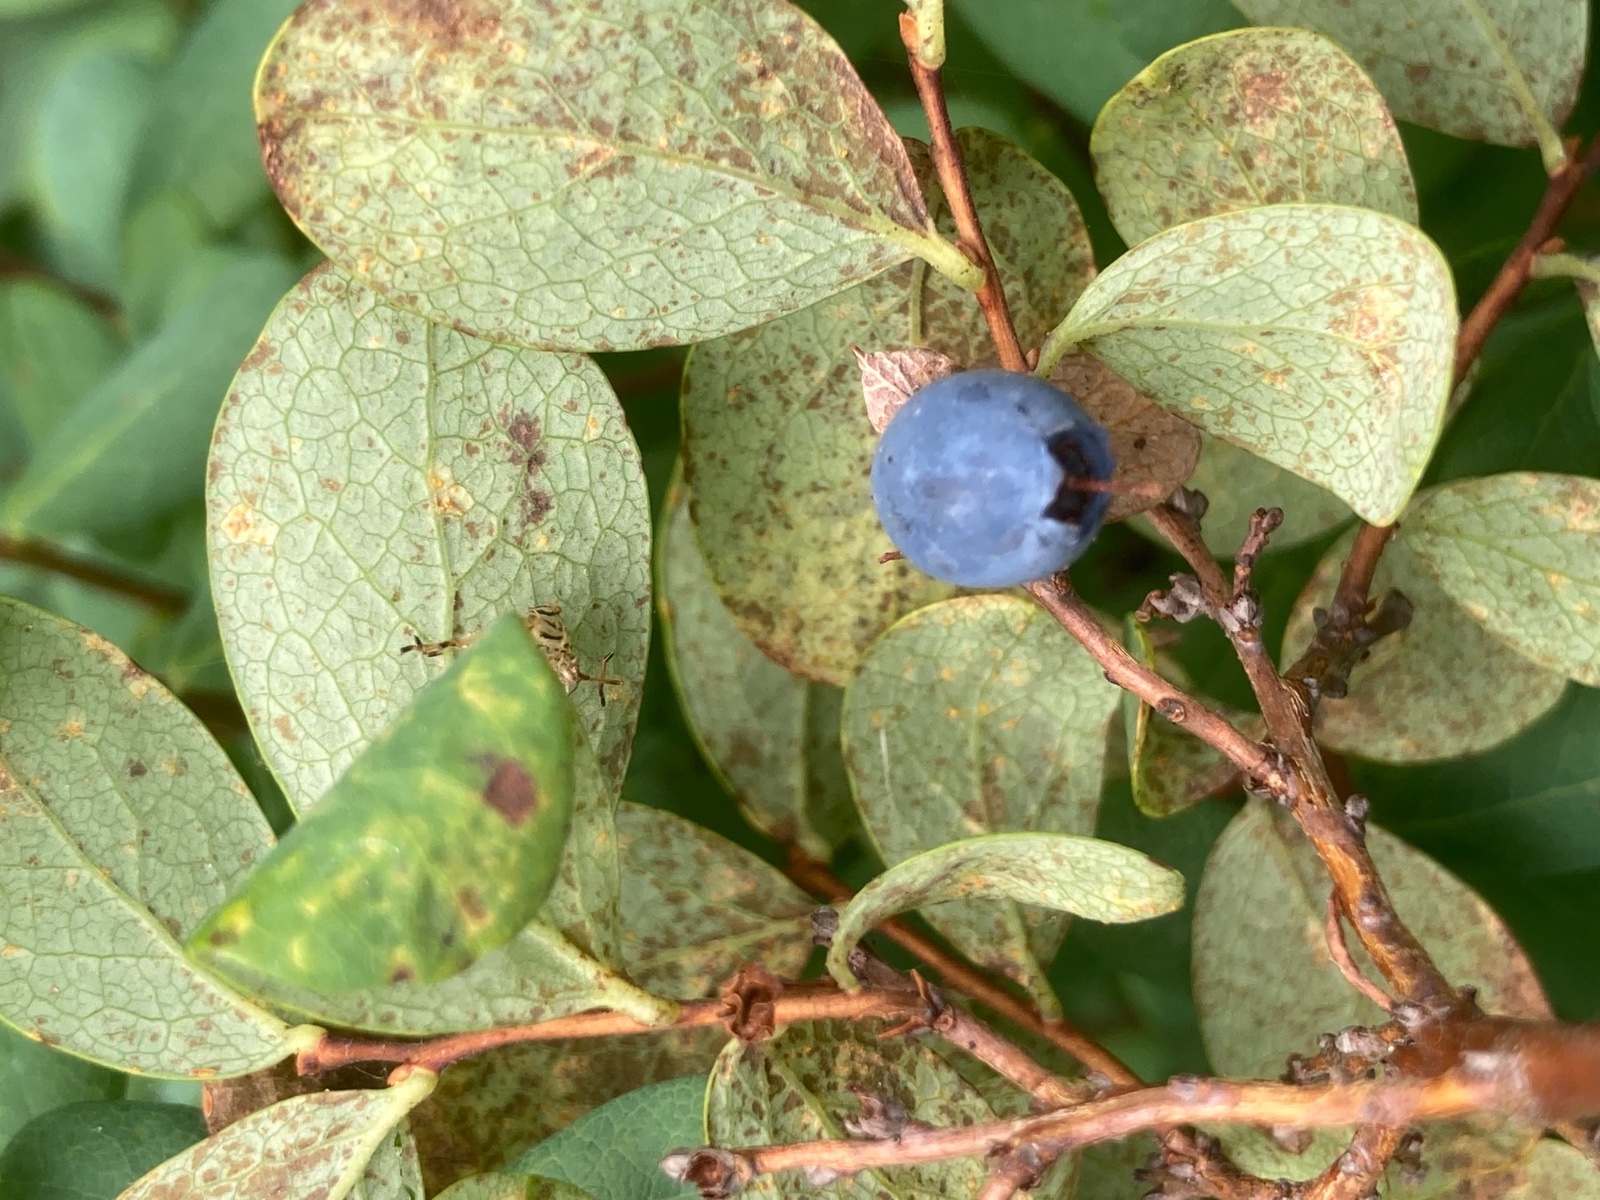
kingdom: Fungi
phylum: Basidiomycota
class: Pucciniomycetes
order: Pucciniales
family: Pucciniastraceae
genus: Naohidemyces
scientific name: Naohidemyces vaccinii
